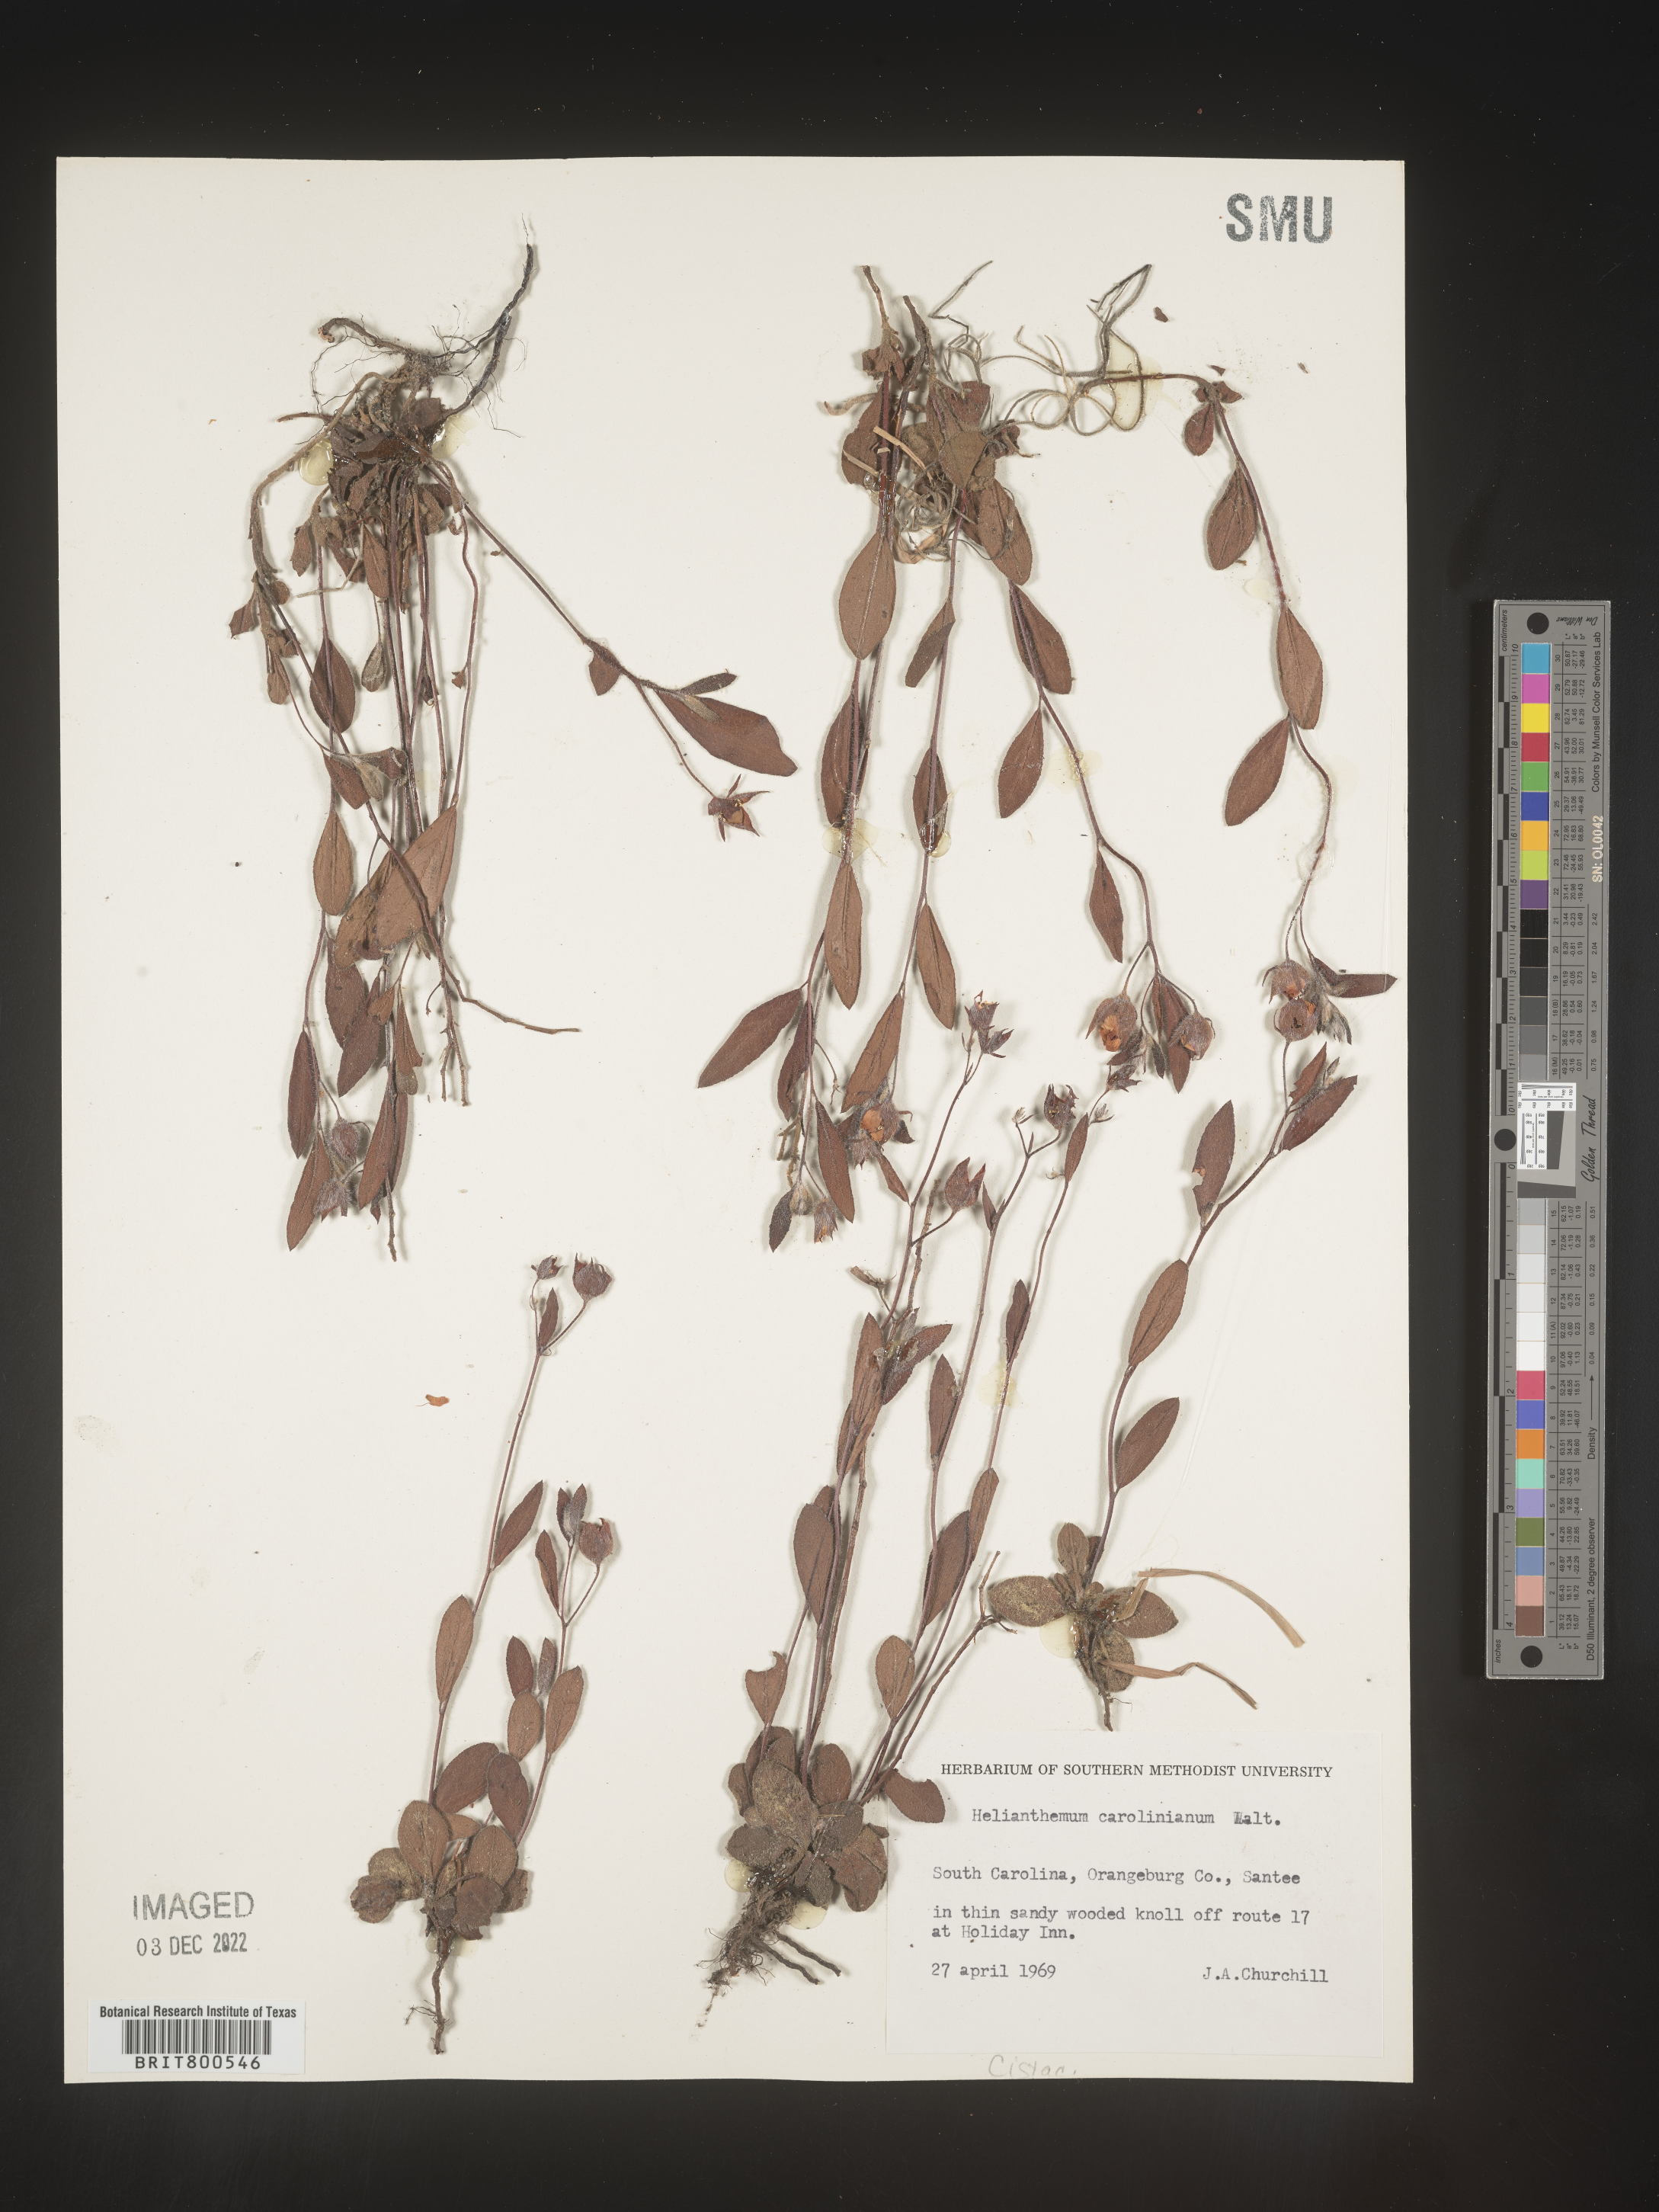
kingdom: Plantae
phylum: Tracheophyta
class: Magnoliopsida
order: Malvales
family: Cistaceae
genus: Crocanthemum
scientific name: Crocanthemum carolinianum
